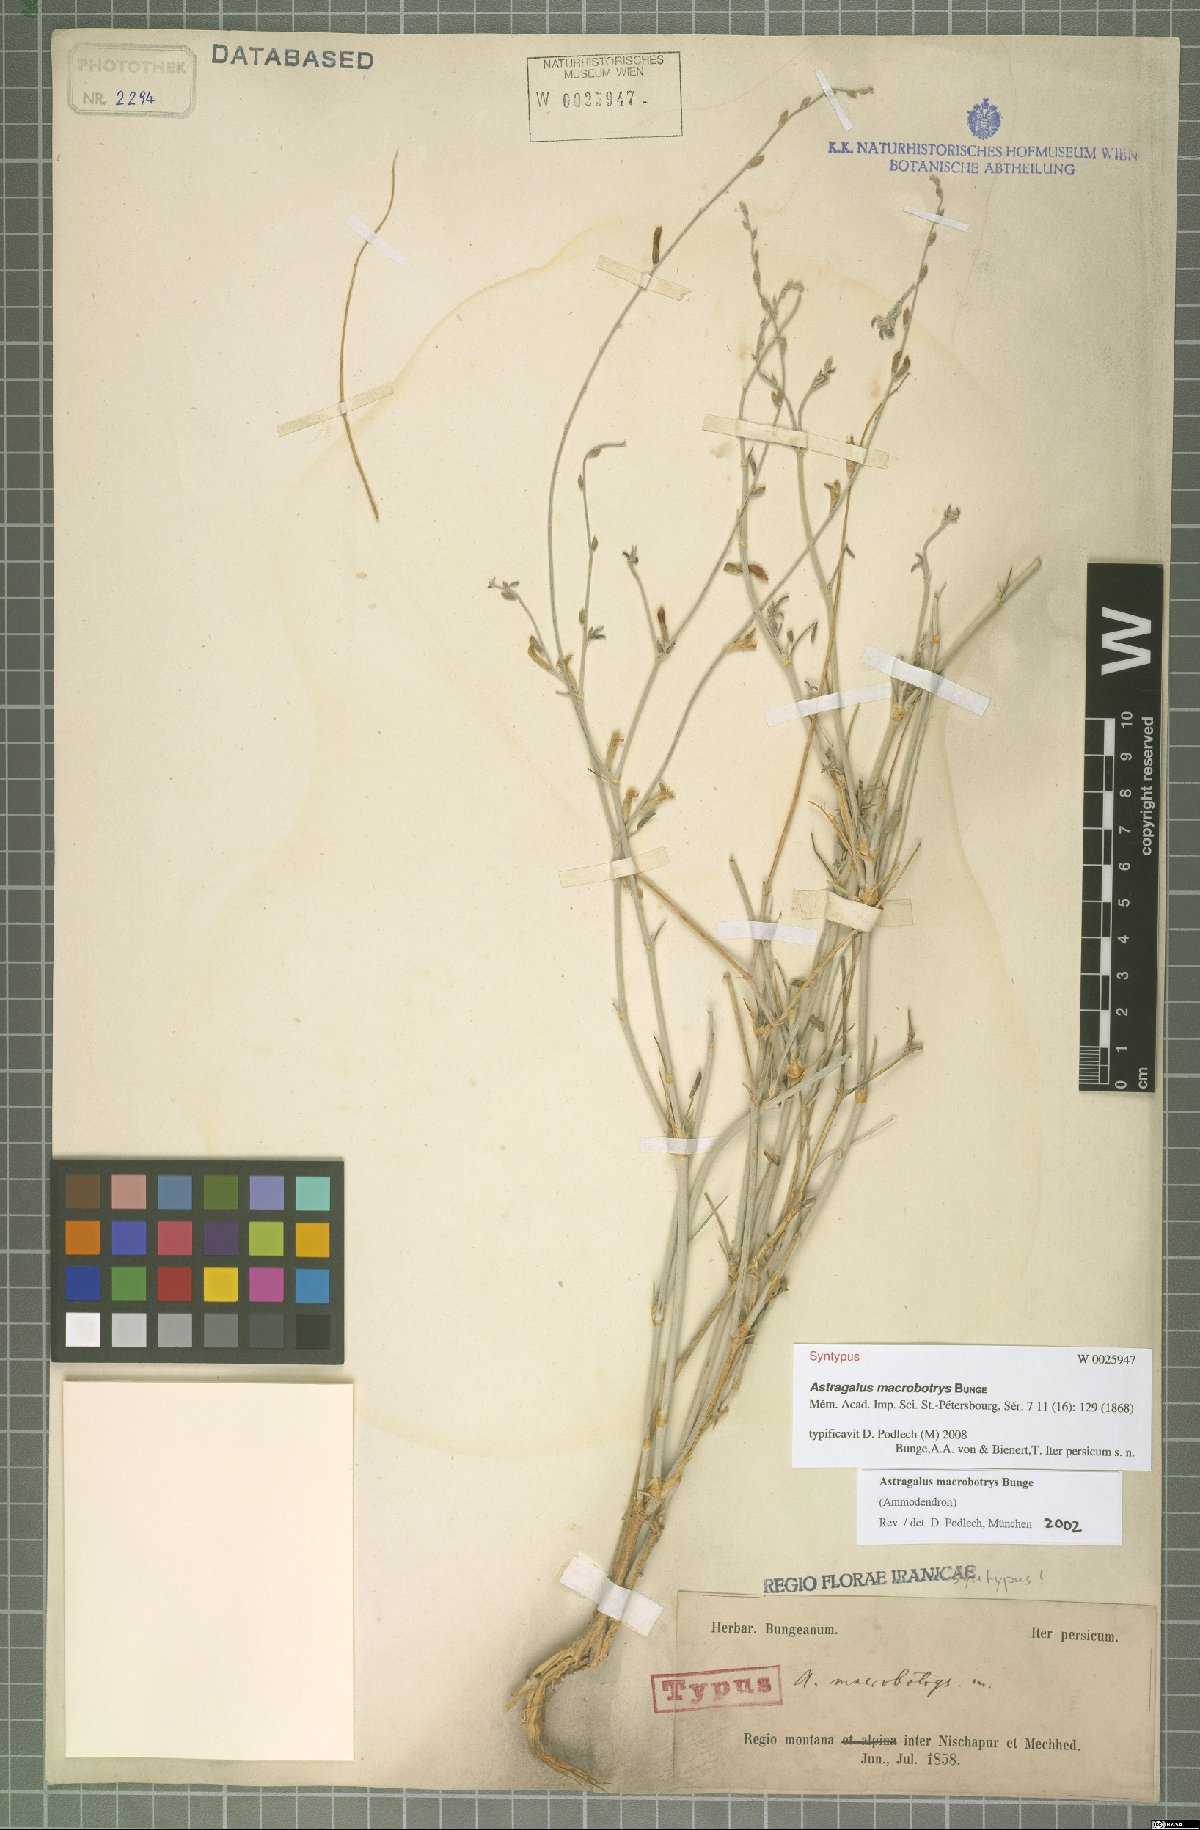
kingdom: Plantae
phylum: Tracheophyta
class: Magnoliopsida
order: Fabales
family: Fabaceae
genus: Astragalus
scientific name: Astragalus macrobotrys
